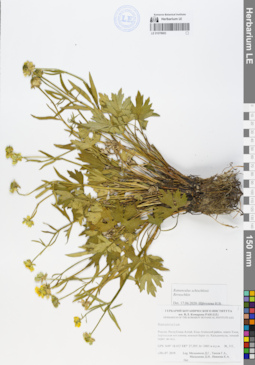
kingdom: Plantae
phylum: Tracheophyta
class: Magnoliopsida
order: Ranunculales
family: Ranunculaceae
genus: Ranunculus
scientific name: Ranunculus schischkinii
